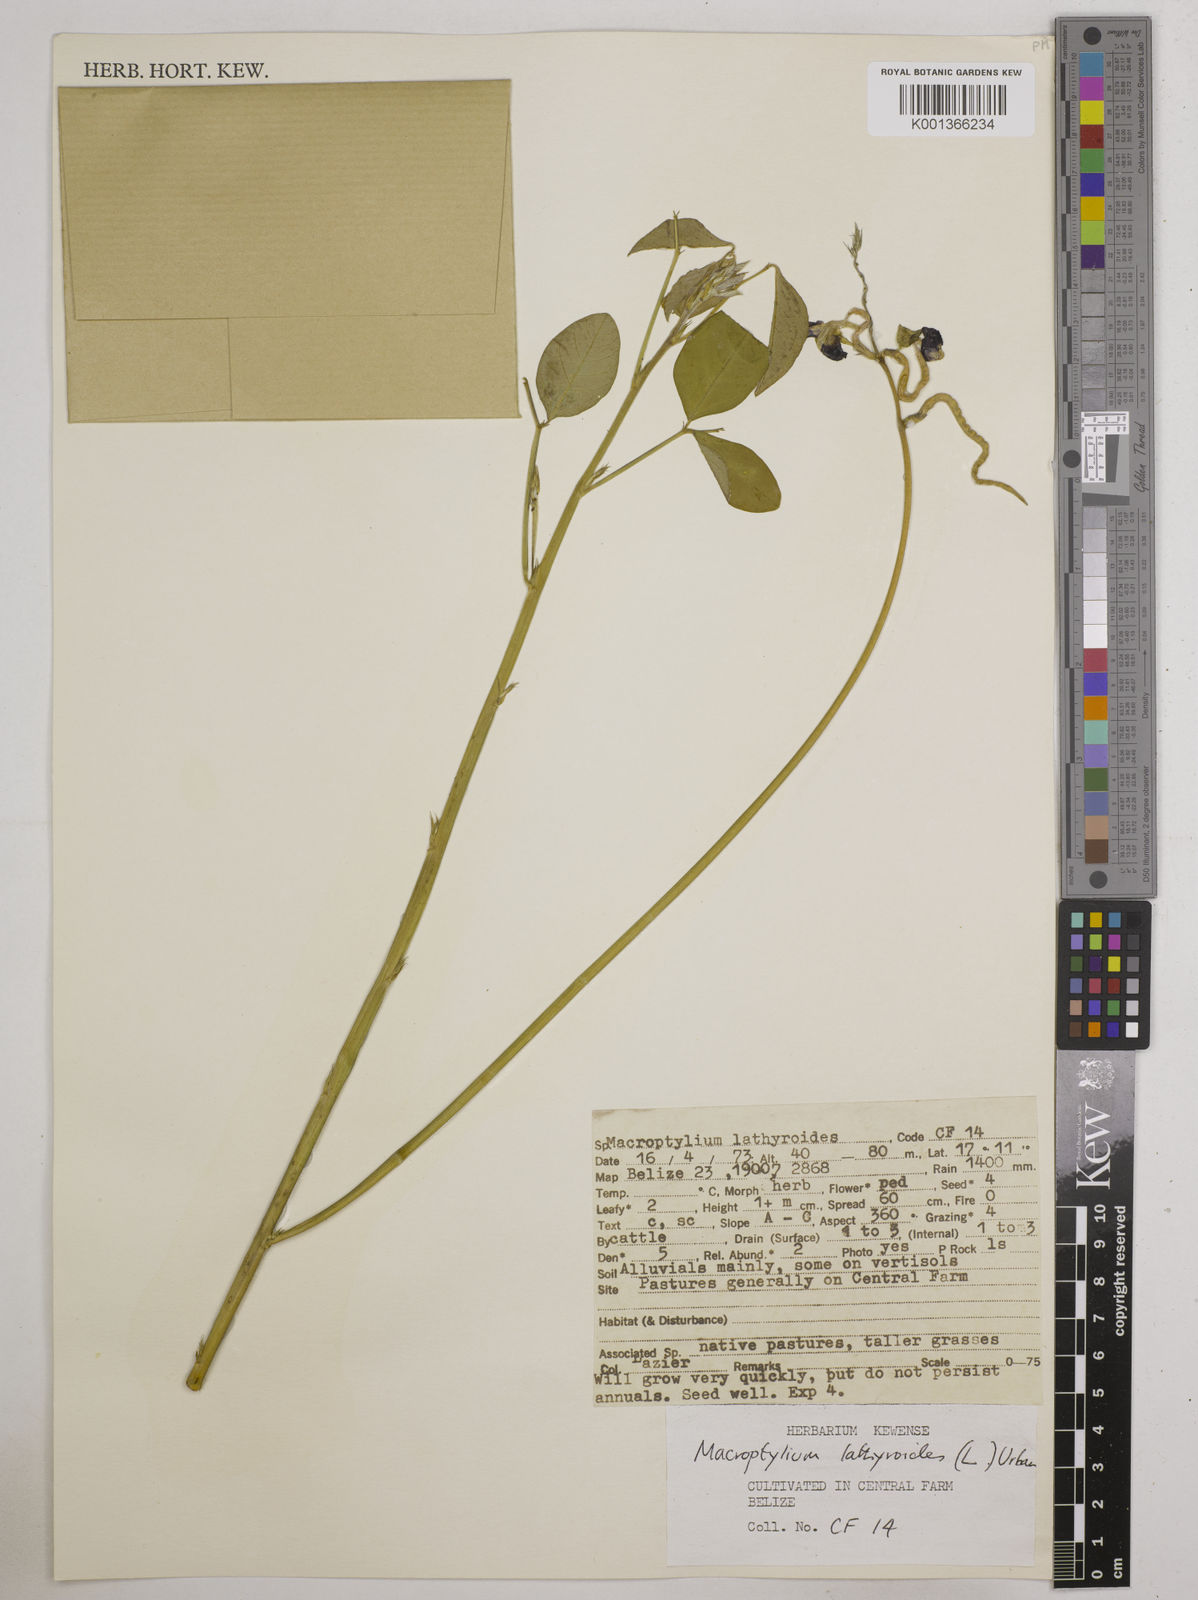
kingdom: Plantae
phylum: Tracheophyta
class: Magnoliopsida
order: Fabales
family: Fabaceae
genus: Macroptilium
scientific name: Macroptilium lathyroides
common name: Wild bushbean
